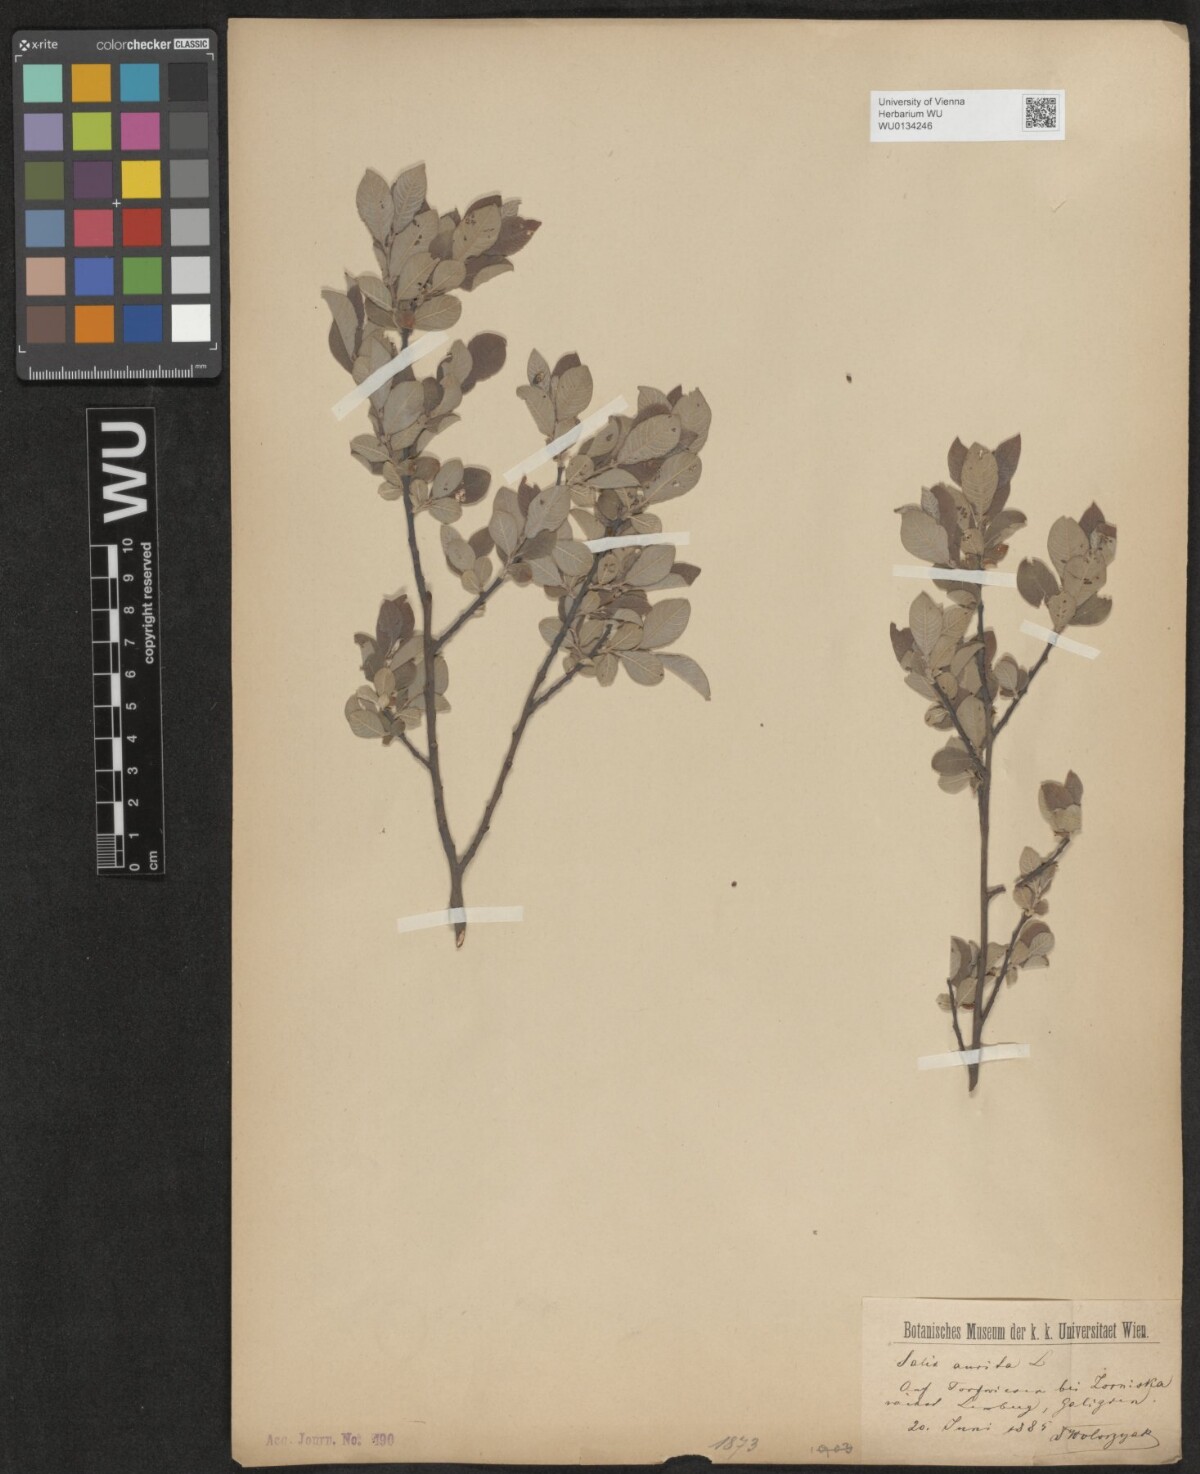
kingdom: Plantae
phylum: Tracheophyta
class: Magnoliopsida
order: Malpighiales
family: Salicaceae
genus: Salix
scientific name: Salix aurita
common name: Eared willow
